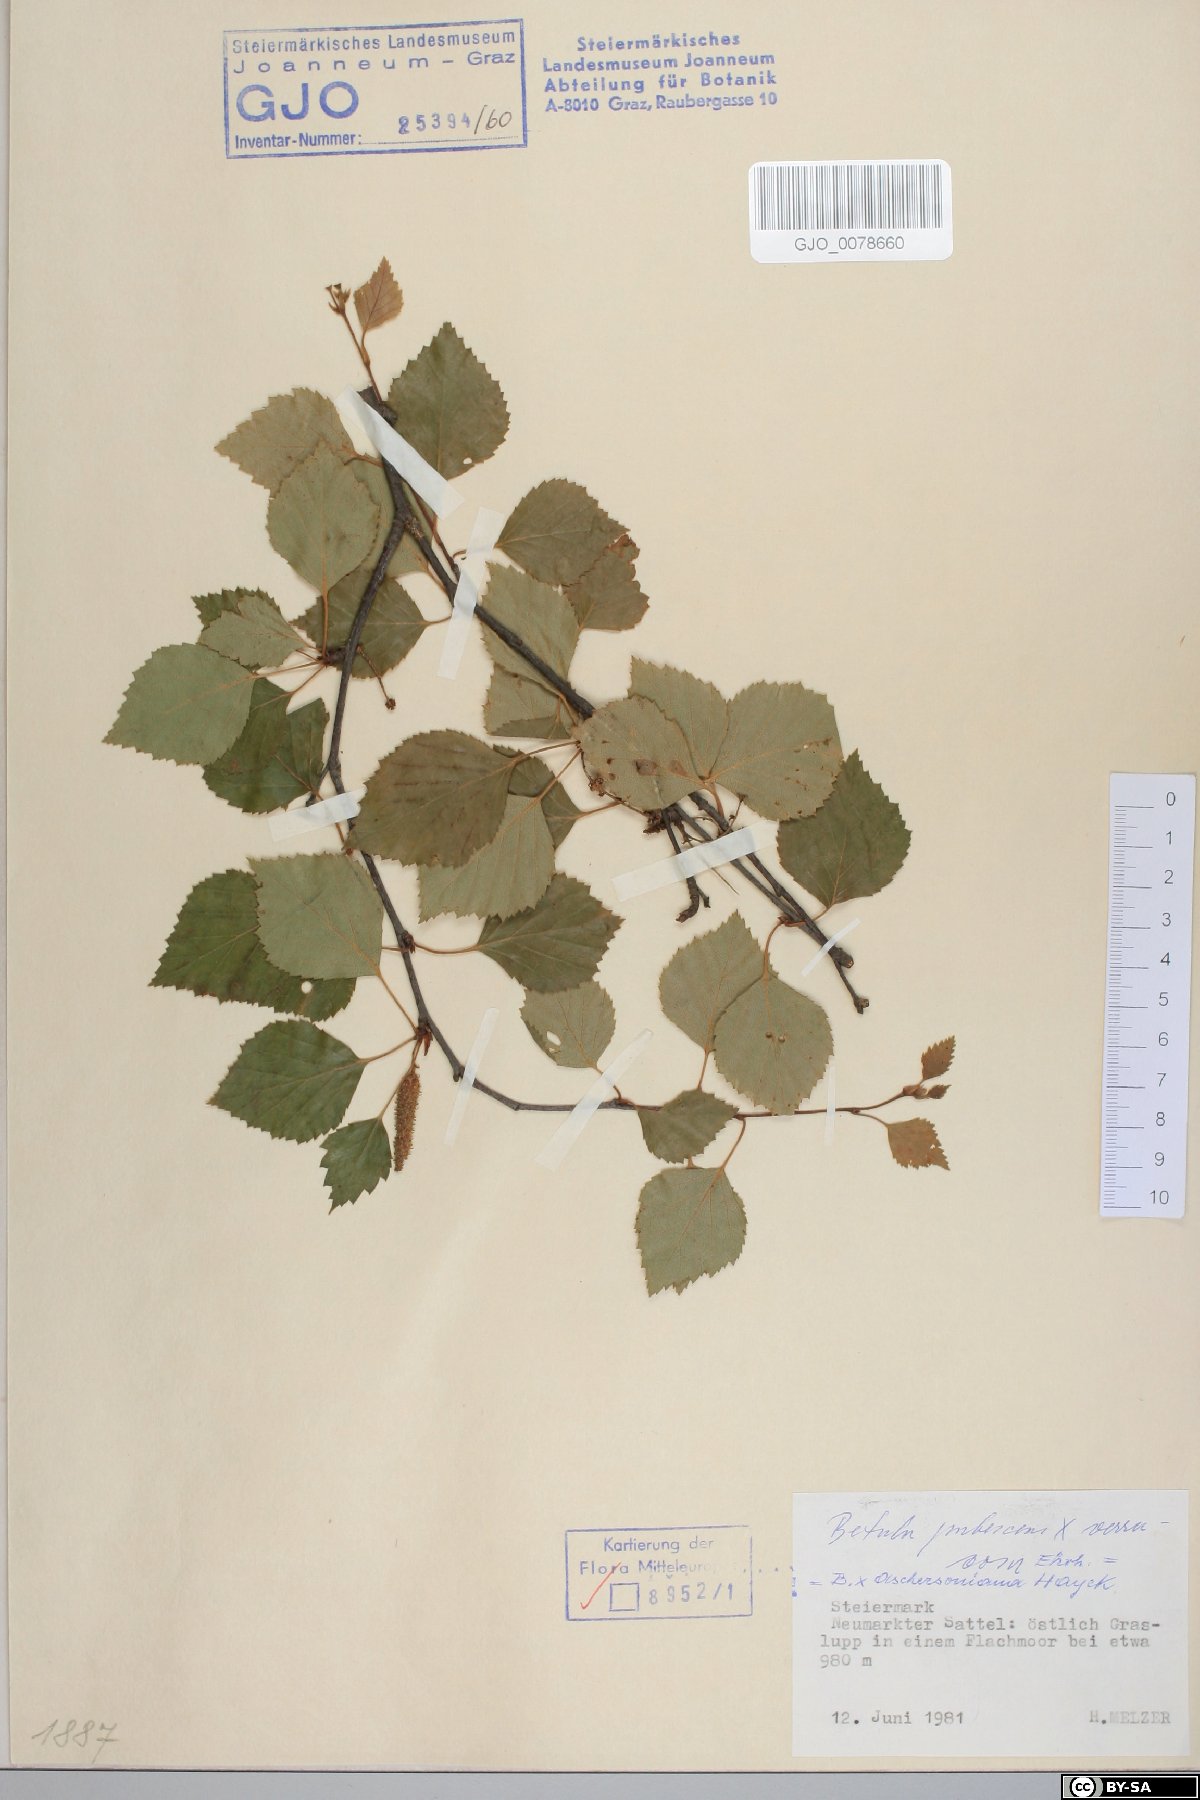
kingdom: Plantae
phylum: Tracheophyta
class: Magnoliopsida
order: Fagales
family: Betulaceae
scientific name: Betulaceae
